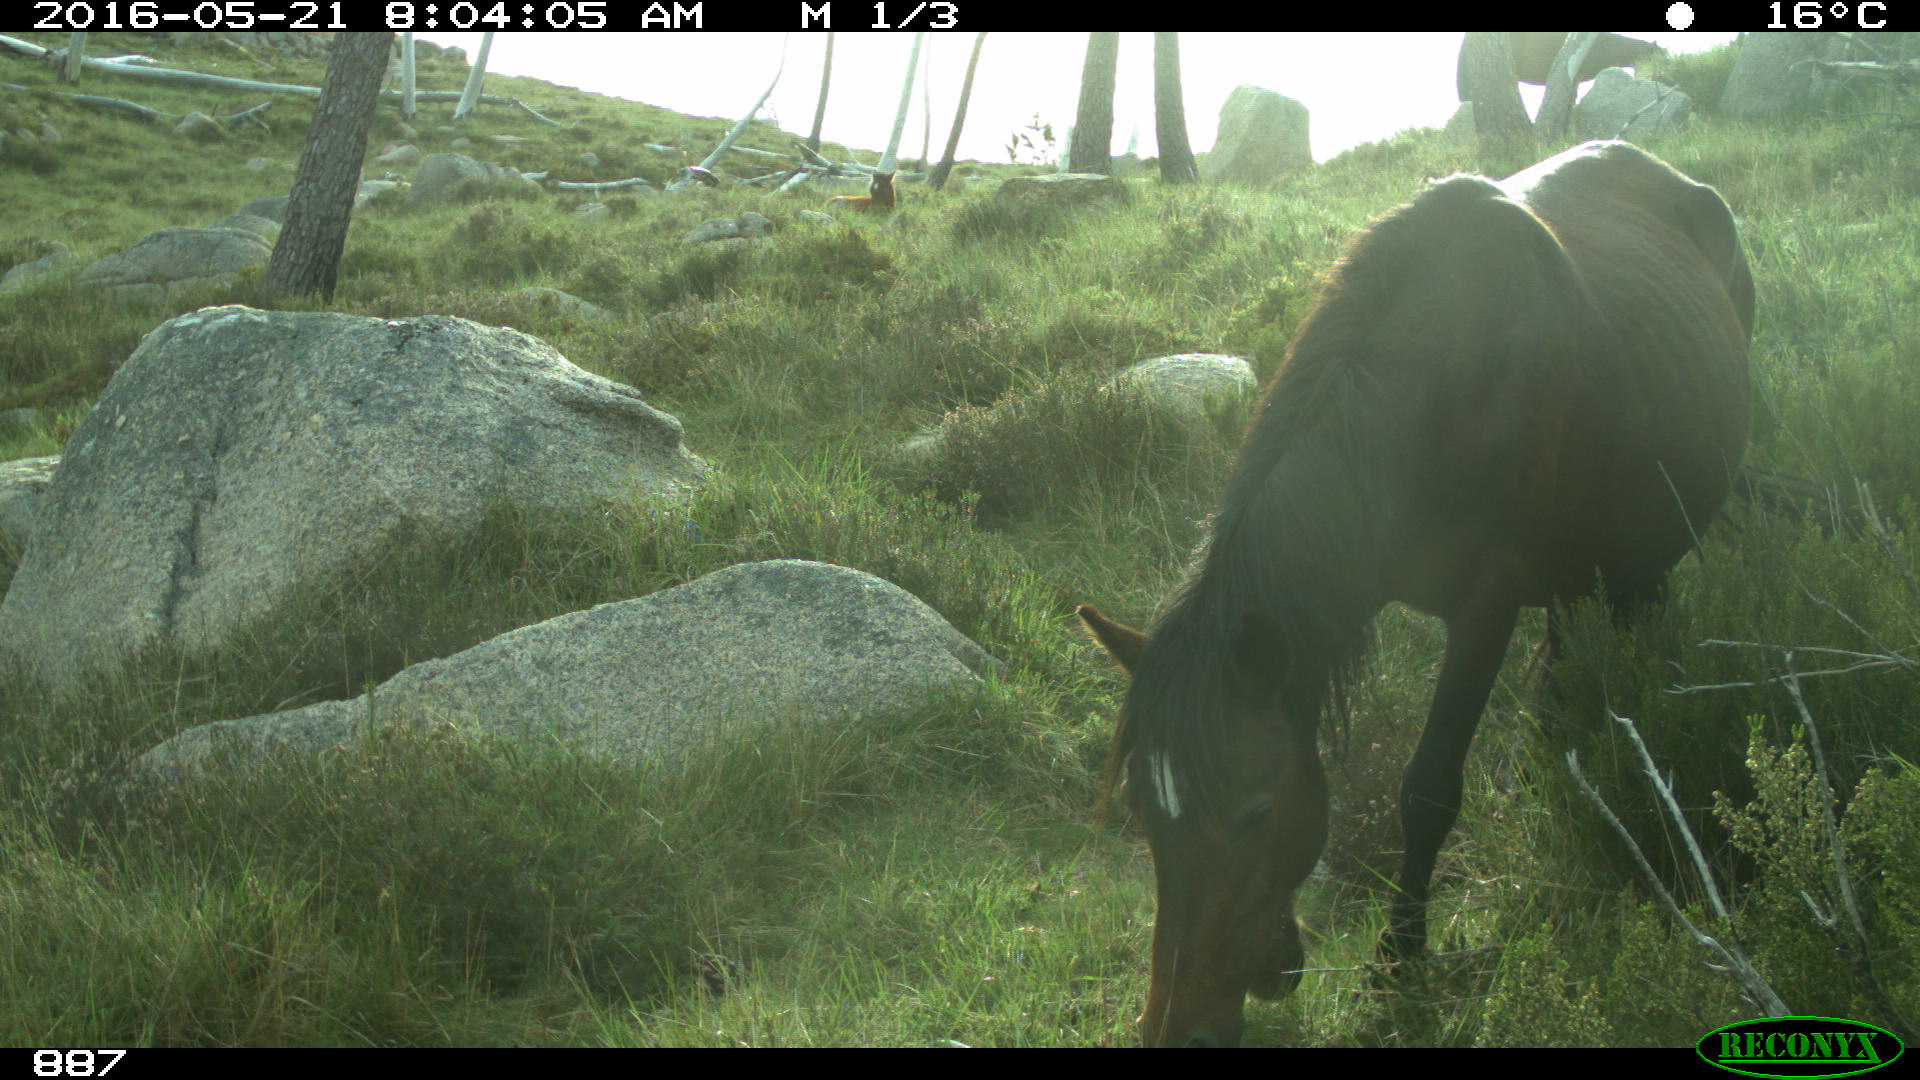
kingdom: Animalia
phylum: Chordata
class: Mammalia
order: Perissodactyla
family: Equidae
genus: Equus
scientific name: Equus caballus
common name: Horse
